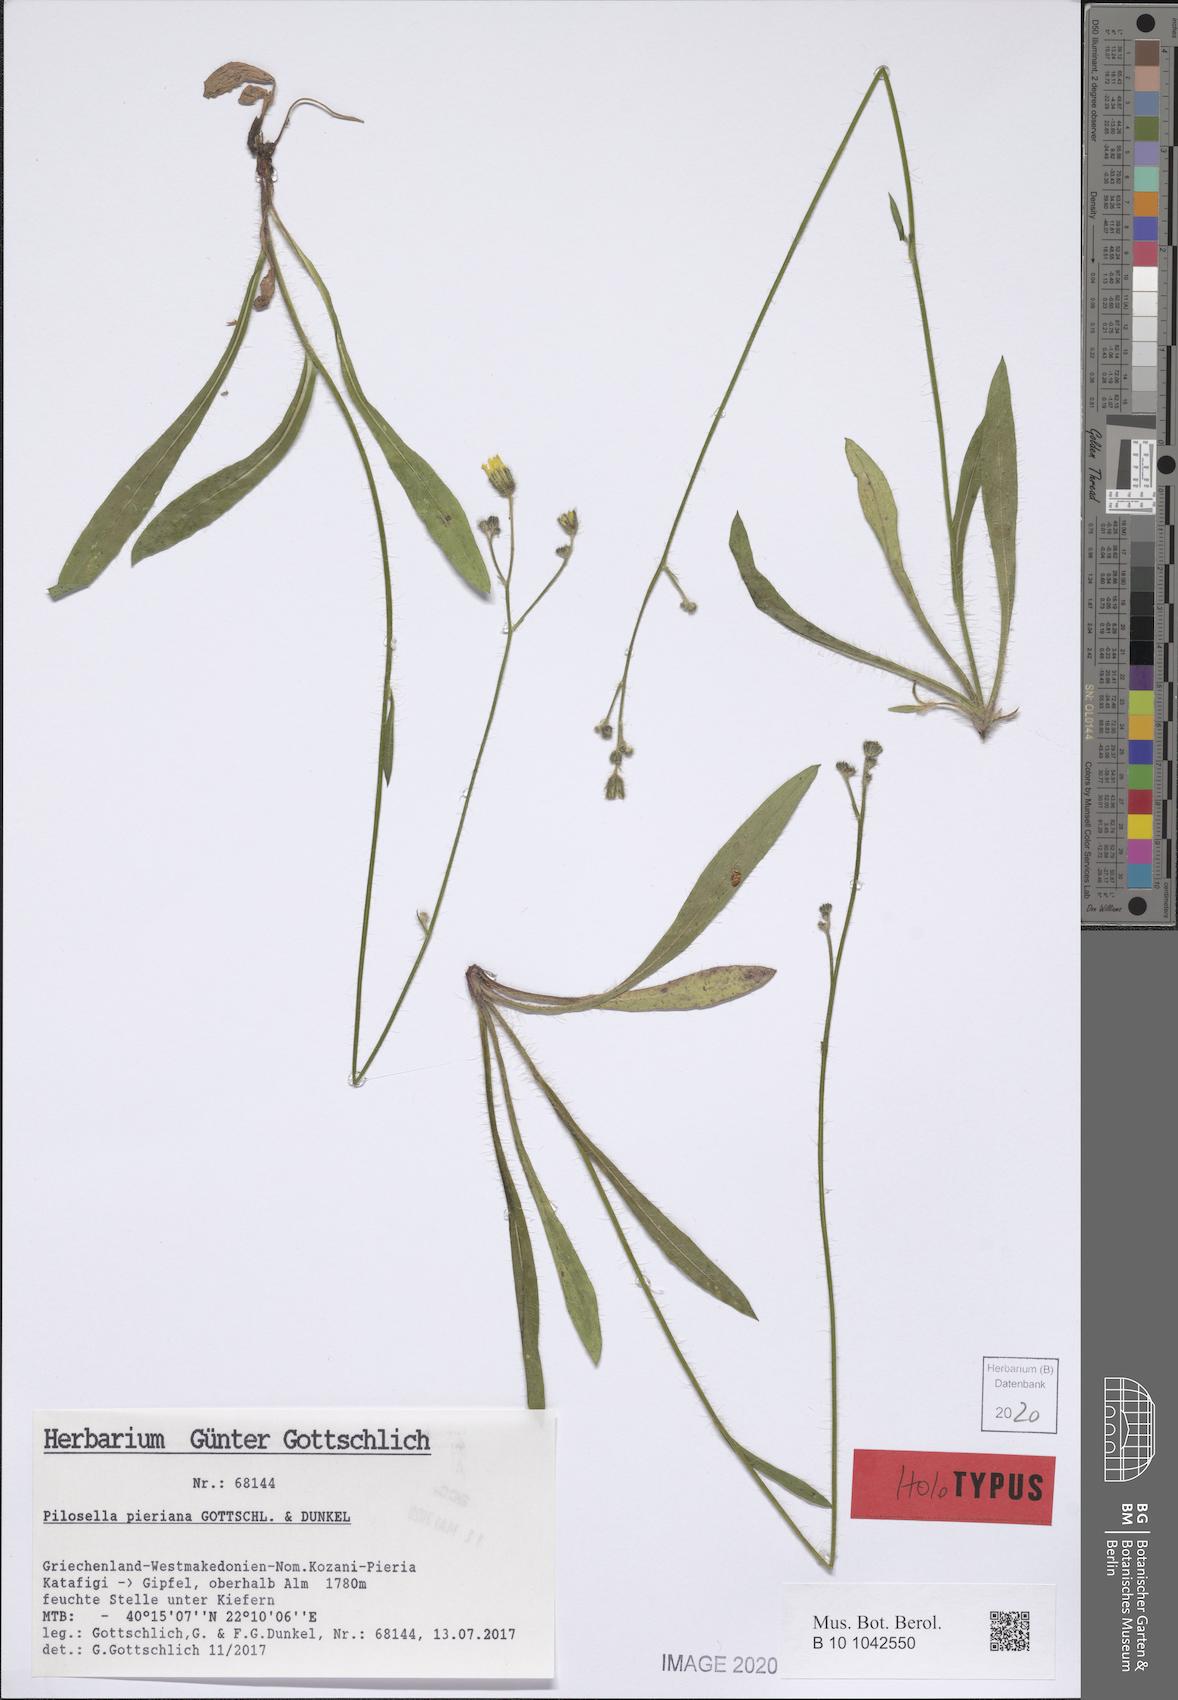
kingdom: Plantae
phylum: Tracheophyta
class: Magnoliopsida
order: Asterales
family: Asteraceae
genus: Pilosella
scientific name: Pilosella pieriana
